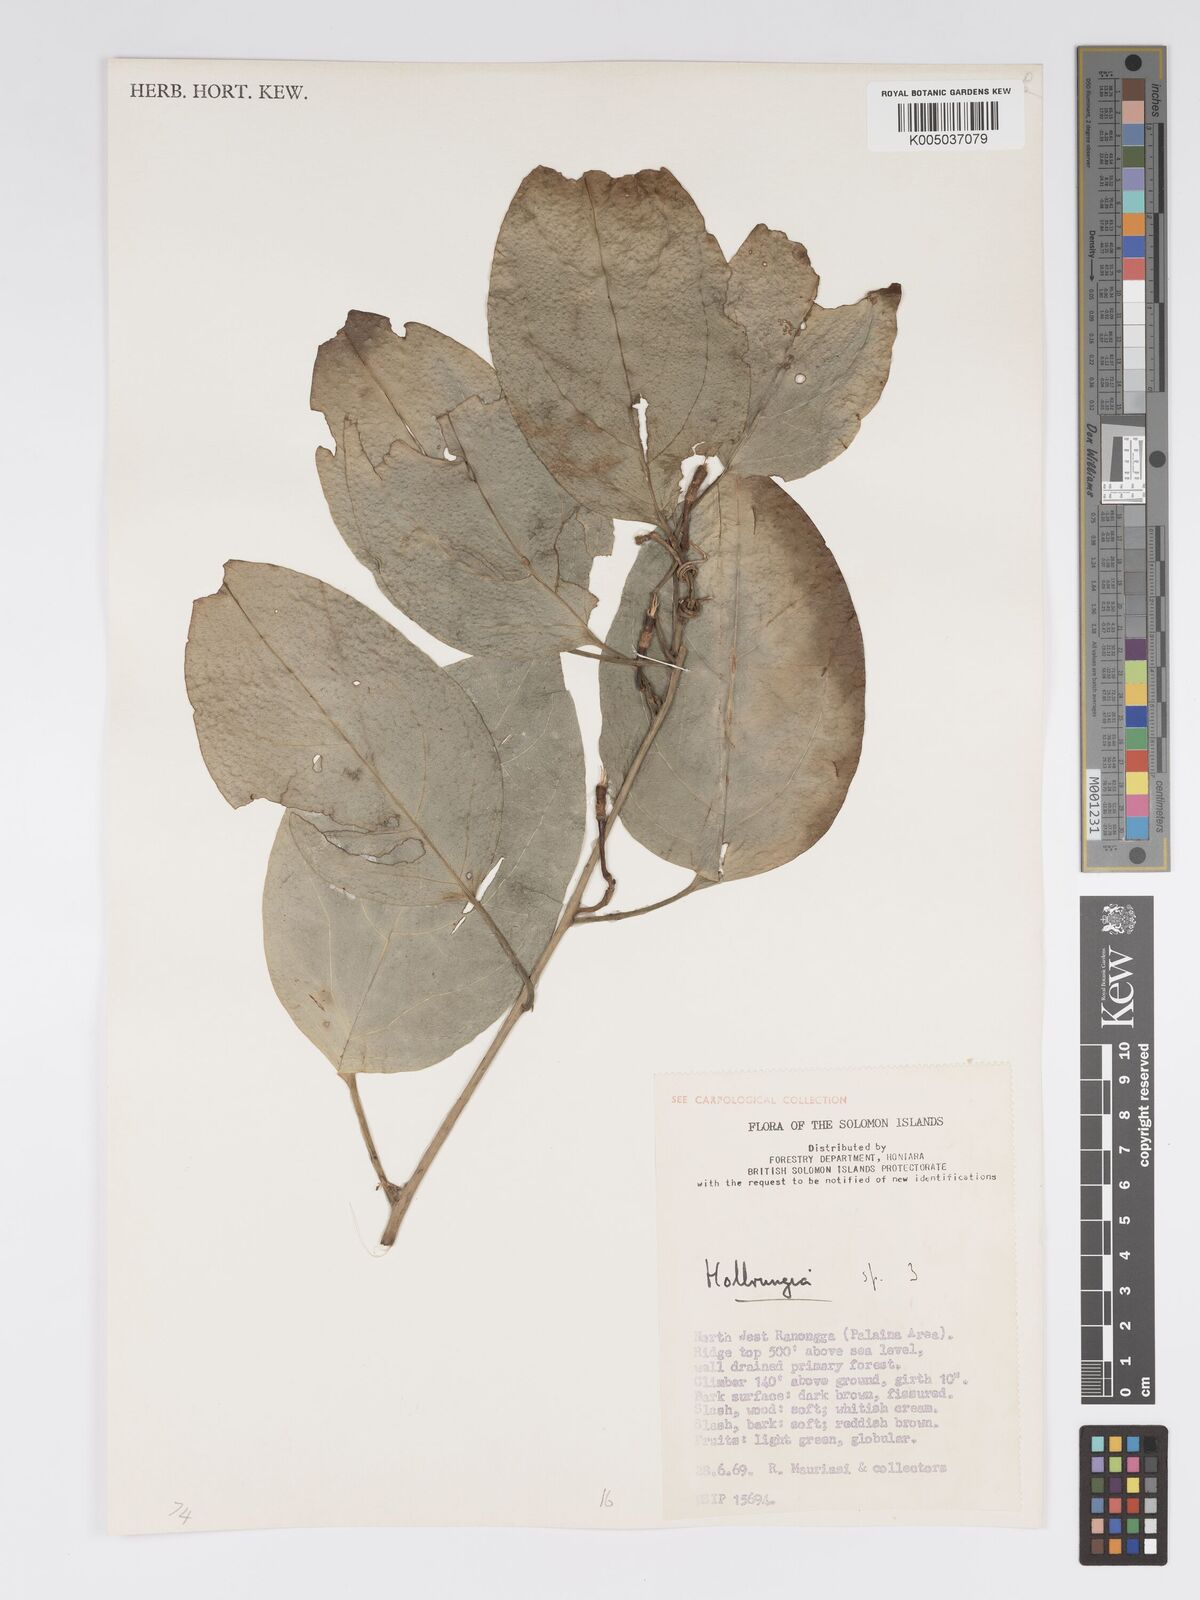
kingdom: Plantae
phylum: Tracheophyta
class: Magnoliopsida
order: Malpighiales
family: Passifloraceae
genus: Passiflora
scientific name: Passiflora aurantioides
